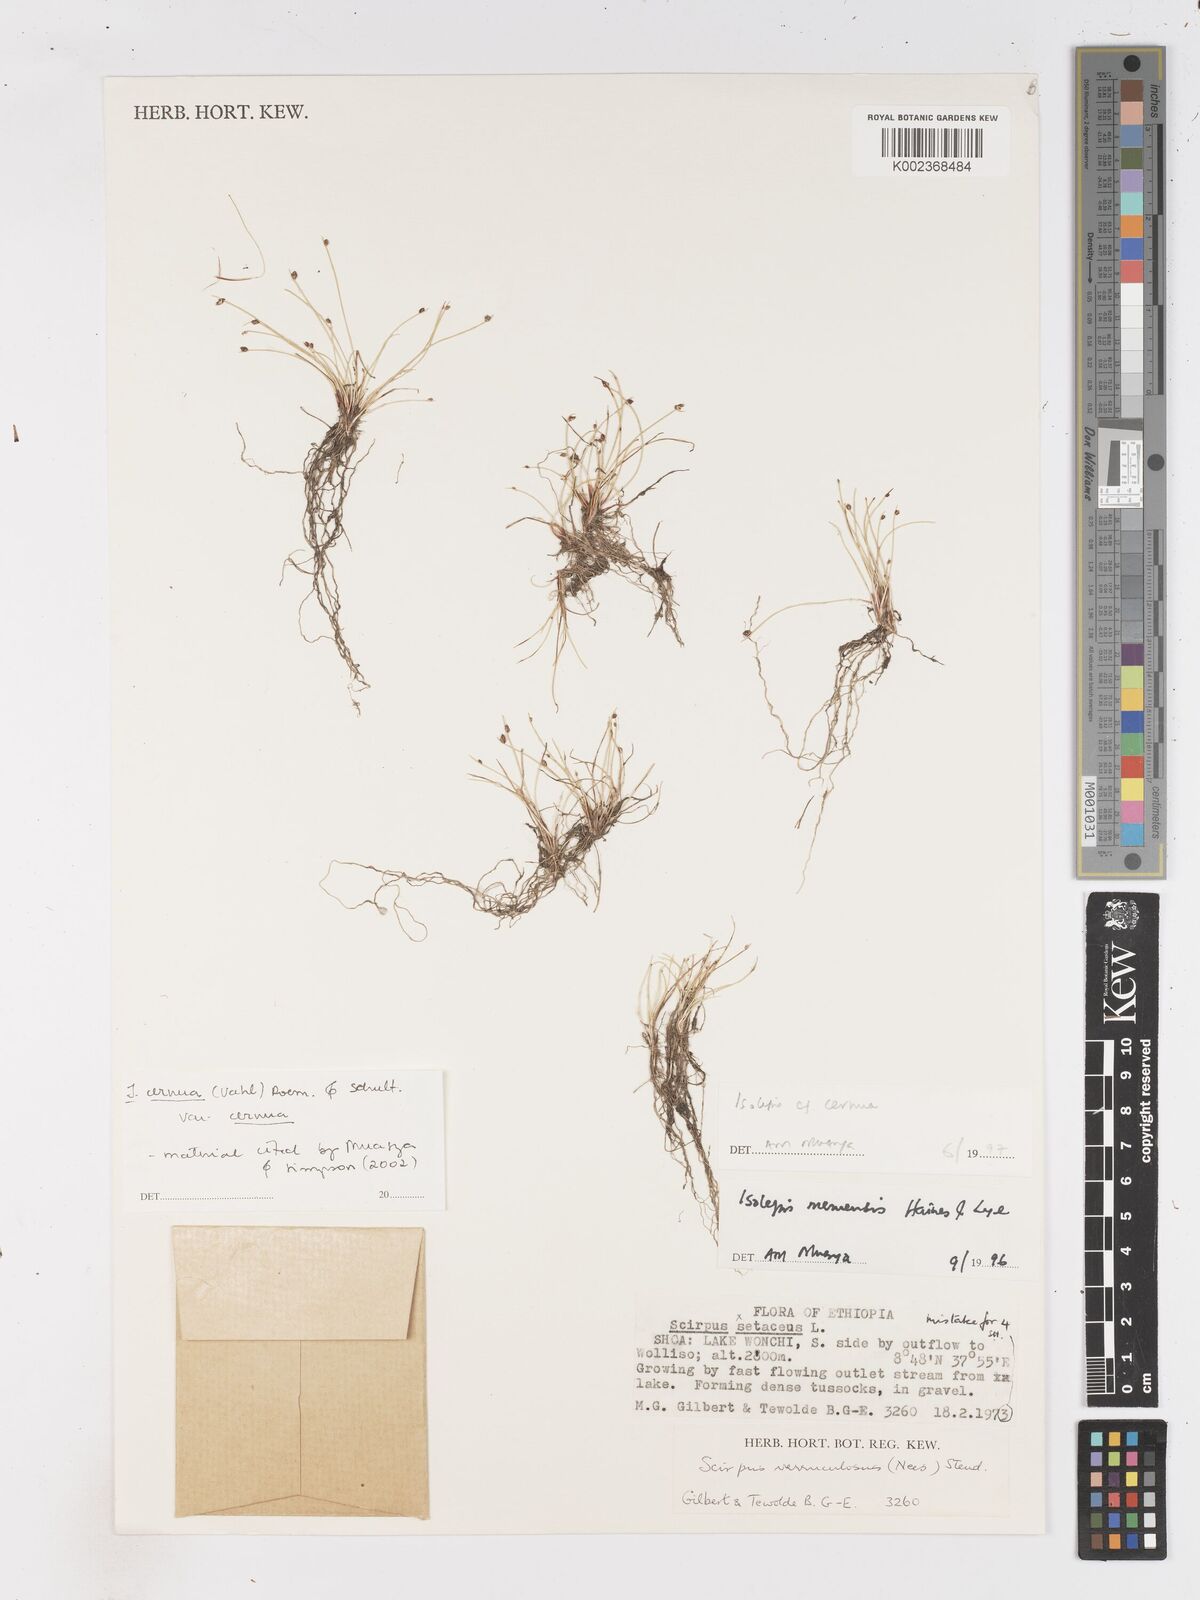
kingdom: Plantae
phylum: Tracheophyta
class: Liliopsida
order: Poales
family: Cyperaceae
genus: Isolepis
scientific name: Isolepis cernua
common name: Slender club-rush
